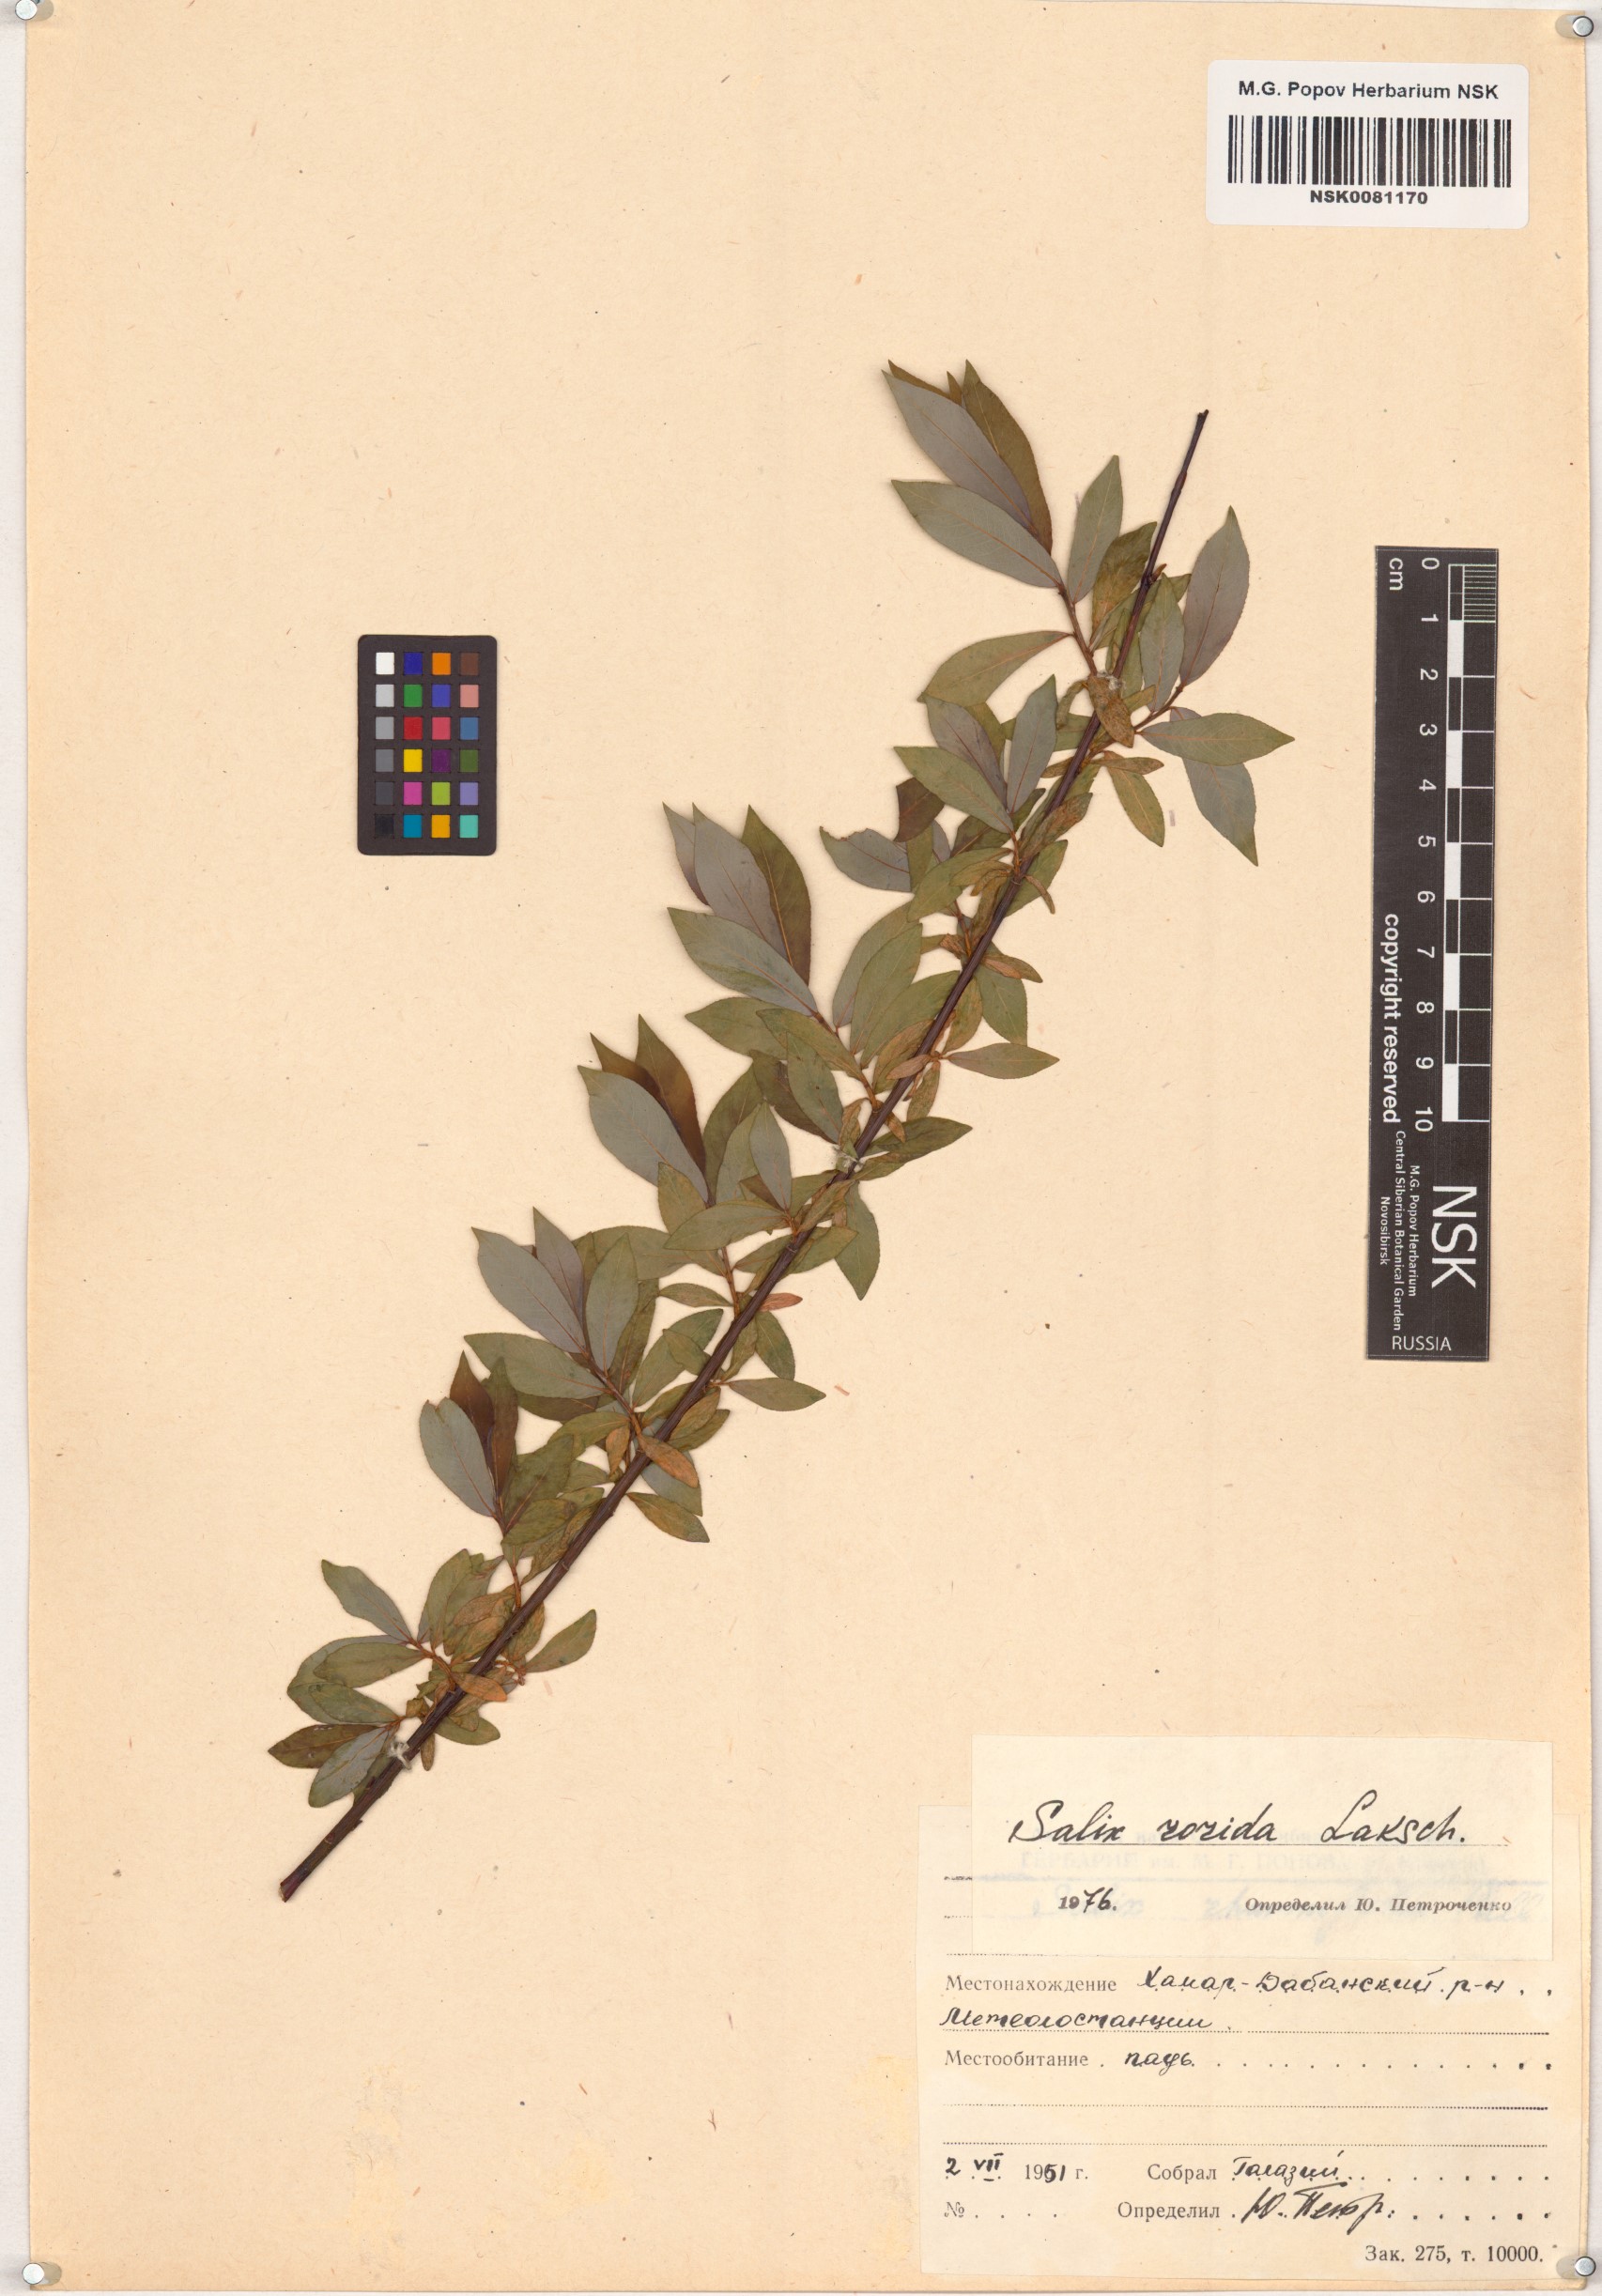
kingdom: Plantae
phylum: Tracheophyta
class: Magnoliopsida
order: Malpighiales
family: Salicaceae
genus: Salix
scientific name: Salix rorida
